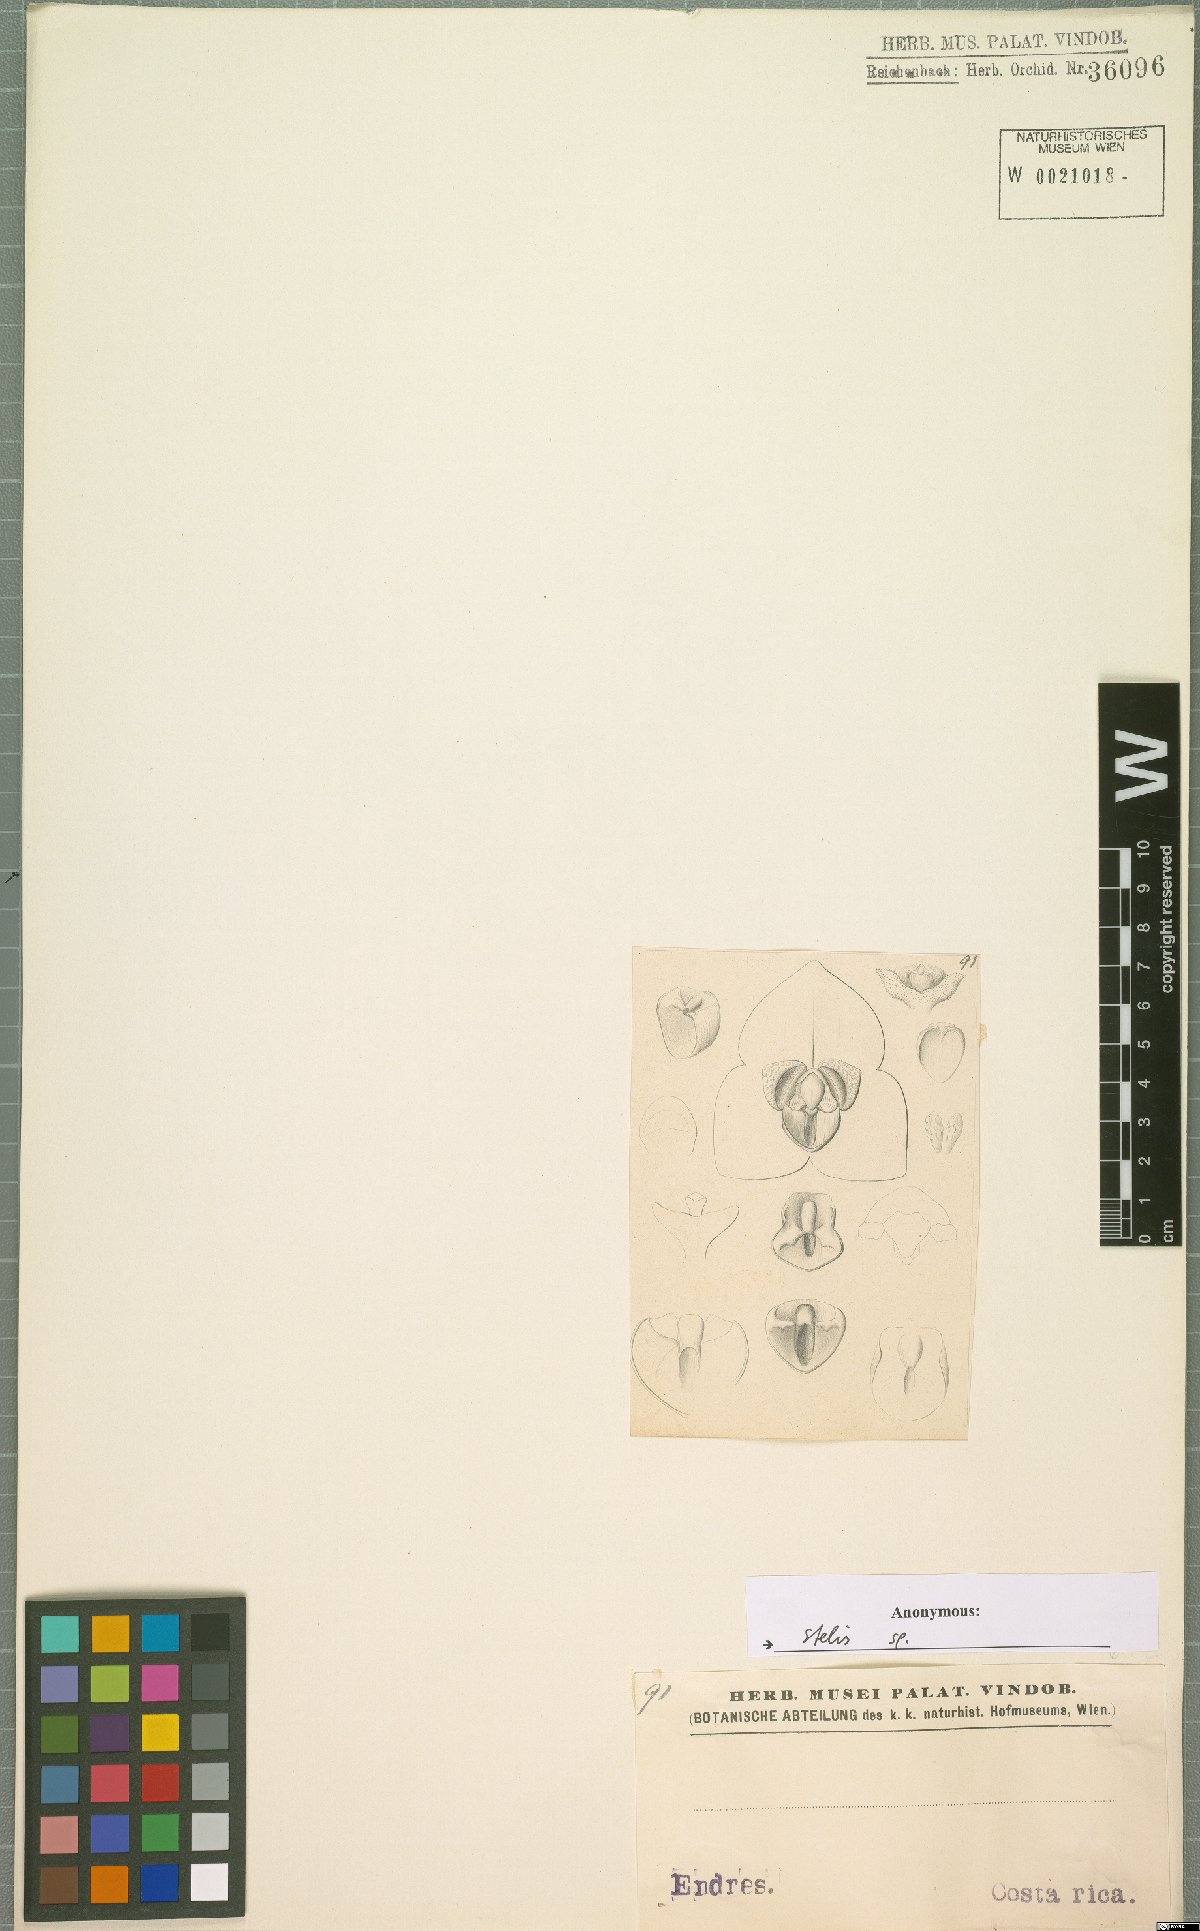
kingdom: Plantae
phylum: Tracheophyta
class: Liliopsida
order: Asparagales
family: Orchidaceae
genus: Stelis
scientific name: Stelis
